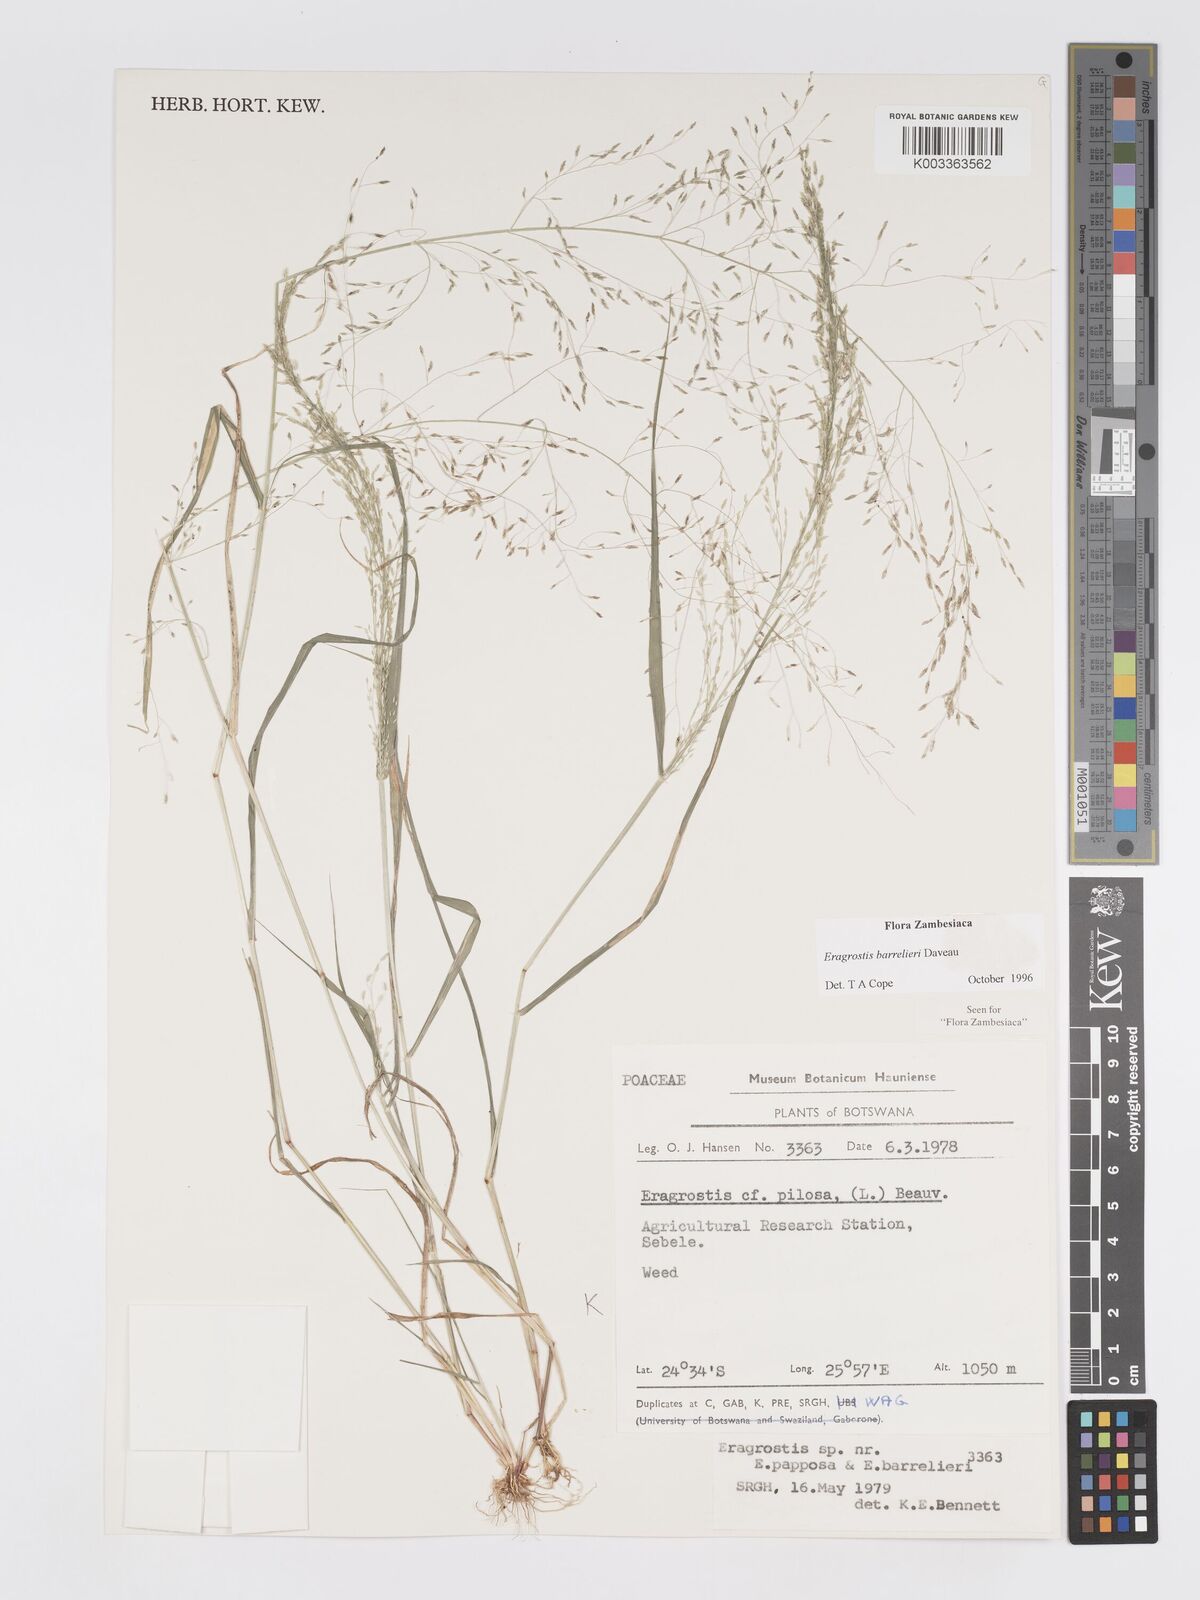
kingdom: Plantae
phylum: Tracheophyta
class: Liliopsida
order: Poales
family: Poaceae
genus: Eragrostis
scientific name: Eragrostis mexicana
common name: Mexican love grass
